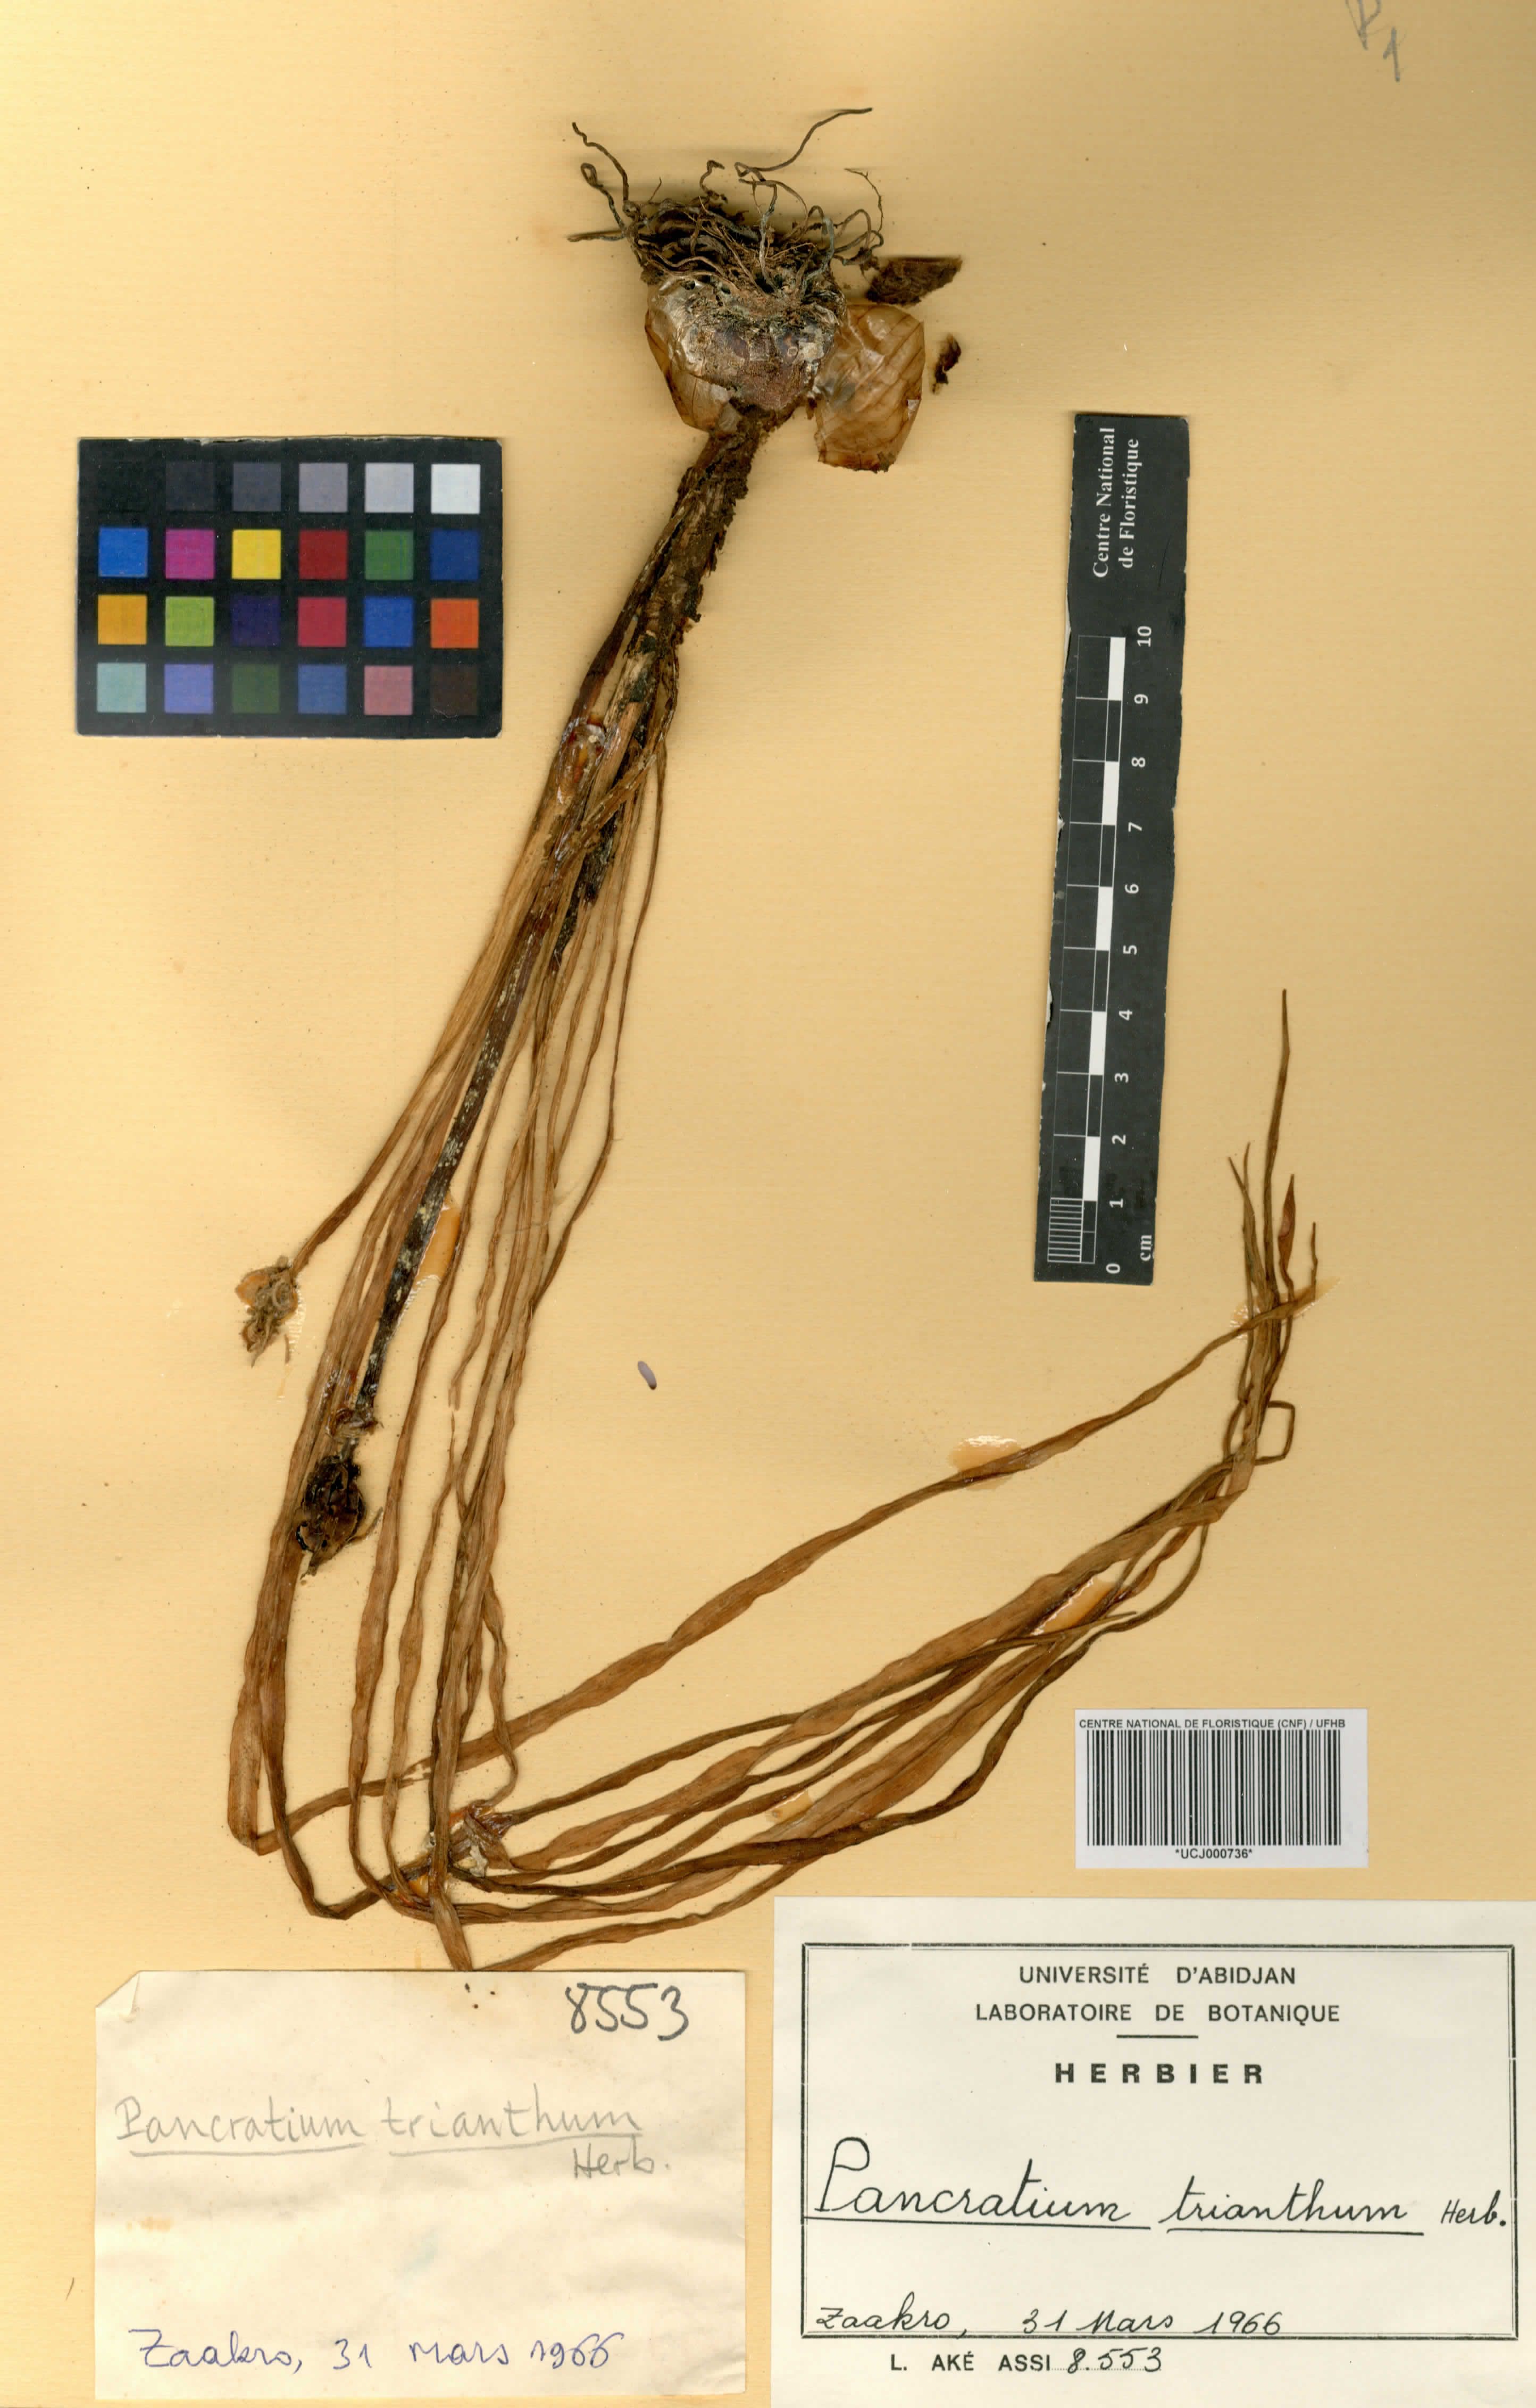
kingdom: Plantae
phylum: Tracheophyta
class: Liliopsida
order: Asparagales
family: Amaryllidaceae
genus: Pancratium
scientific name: Pancratium trianthum
